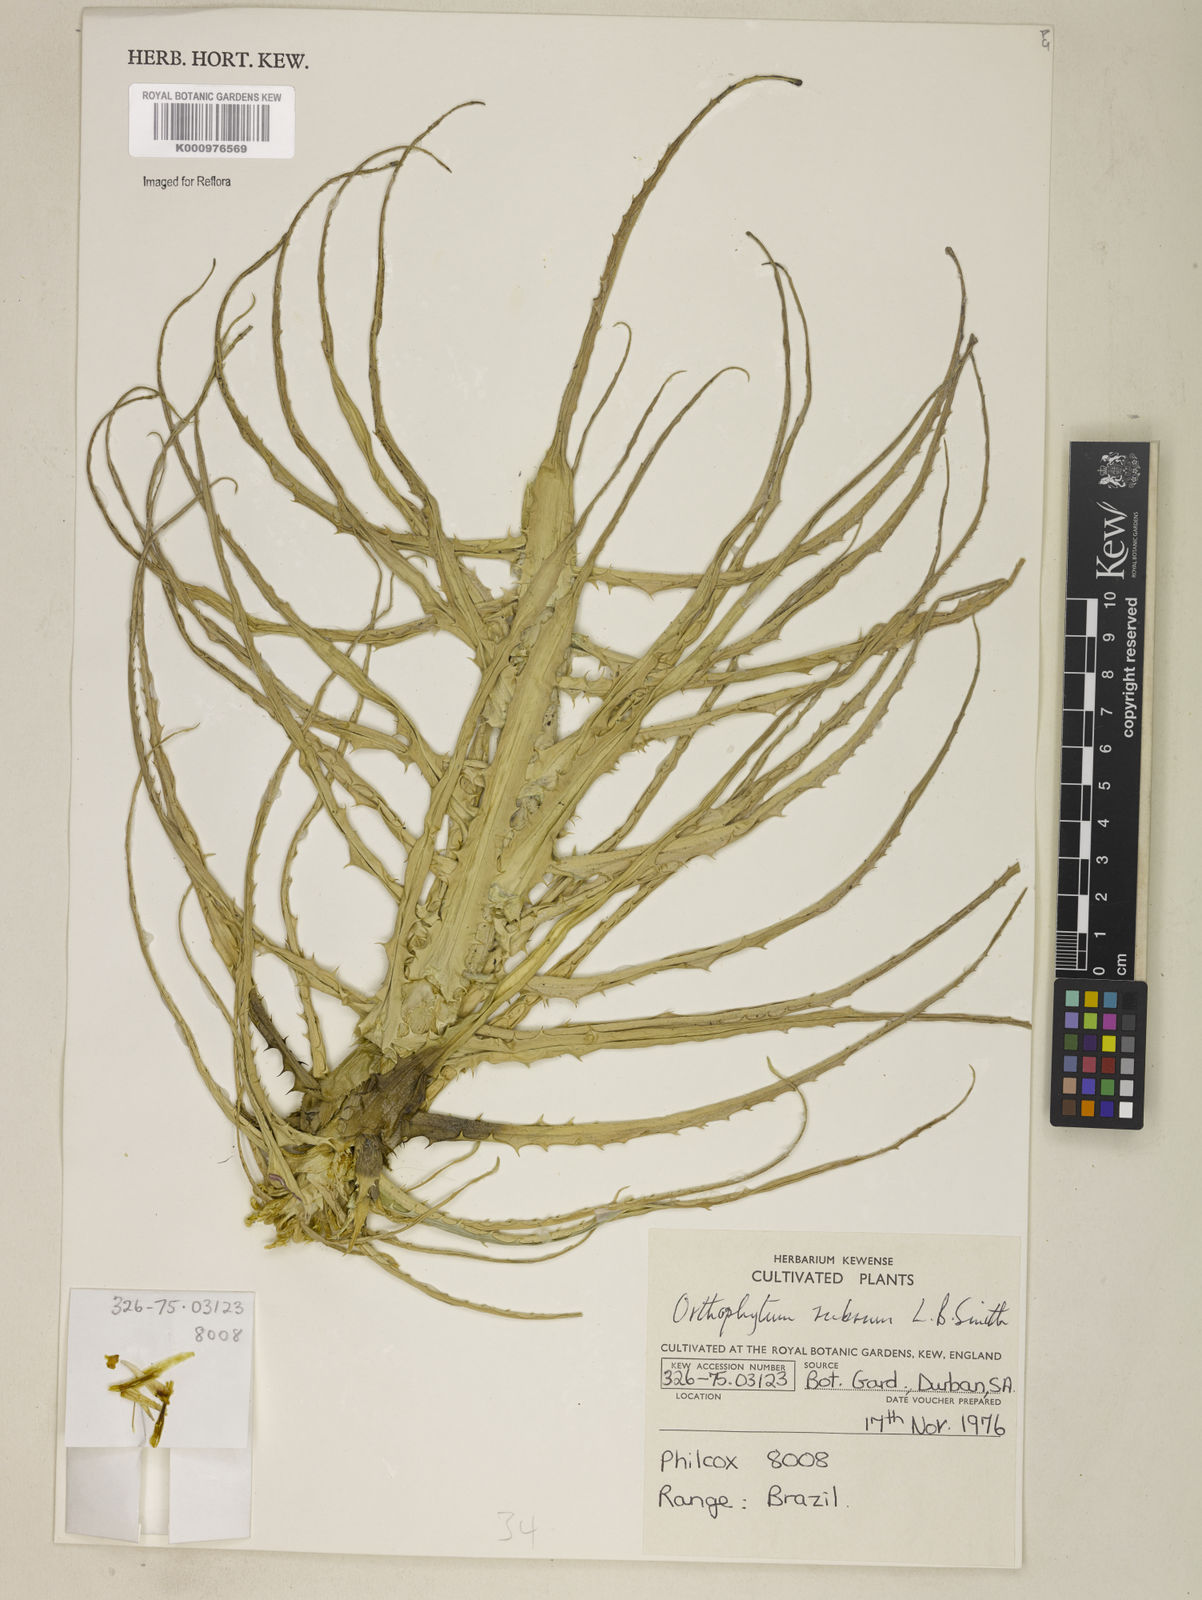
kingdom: Plantae
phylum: Tracheophyta
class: Liliopsida
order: Poales
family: Bromeliaceae
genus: Orthophytum
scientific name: Orthophytum rubrum
